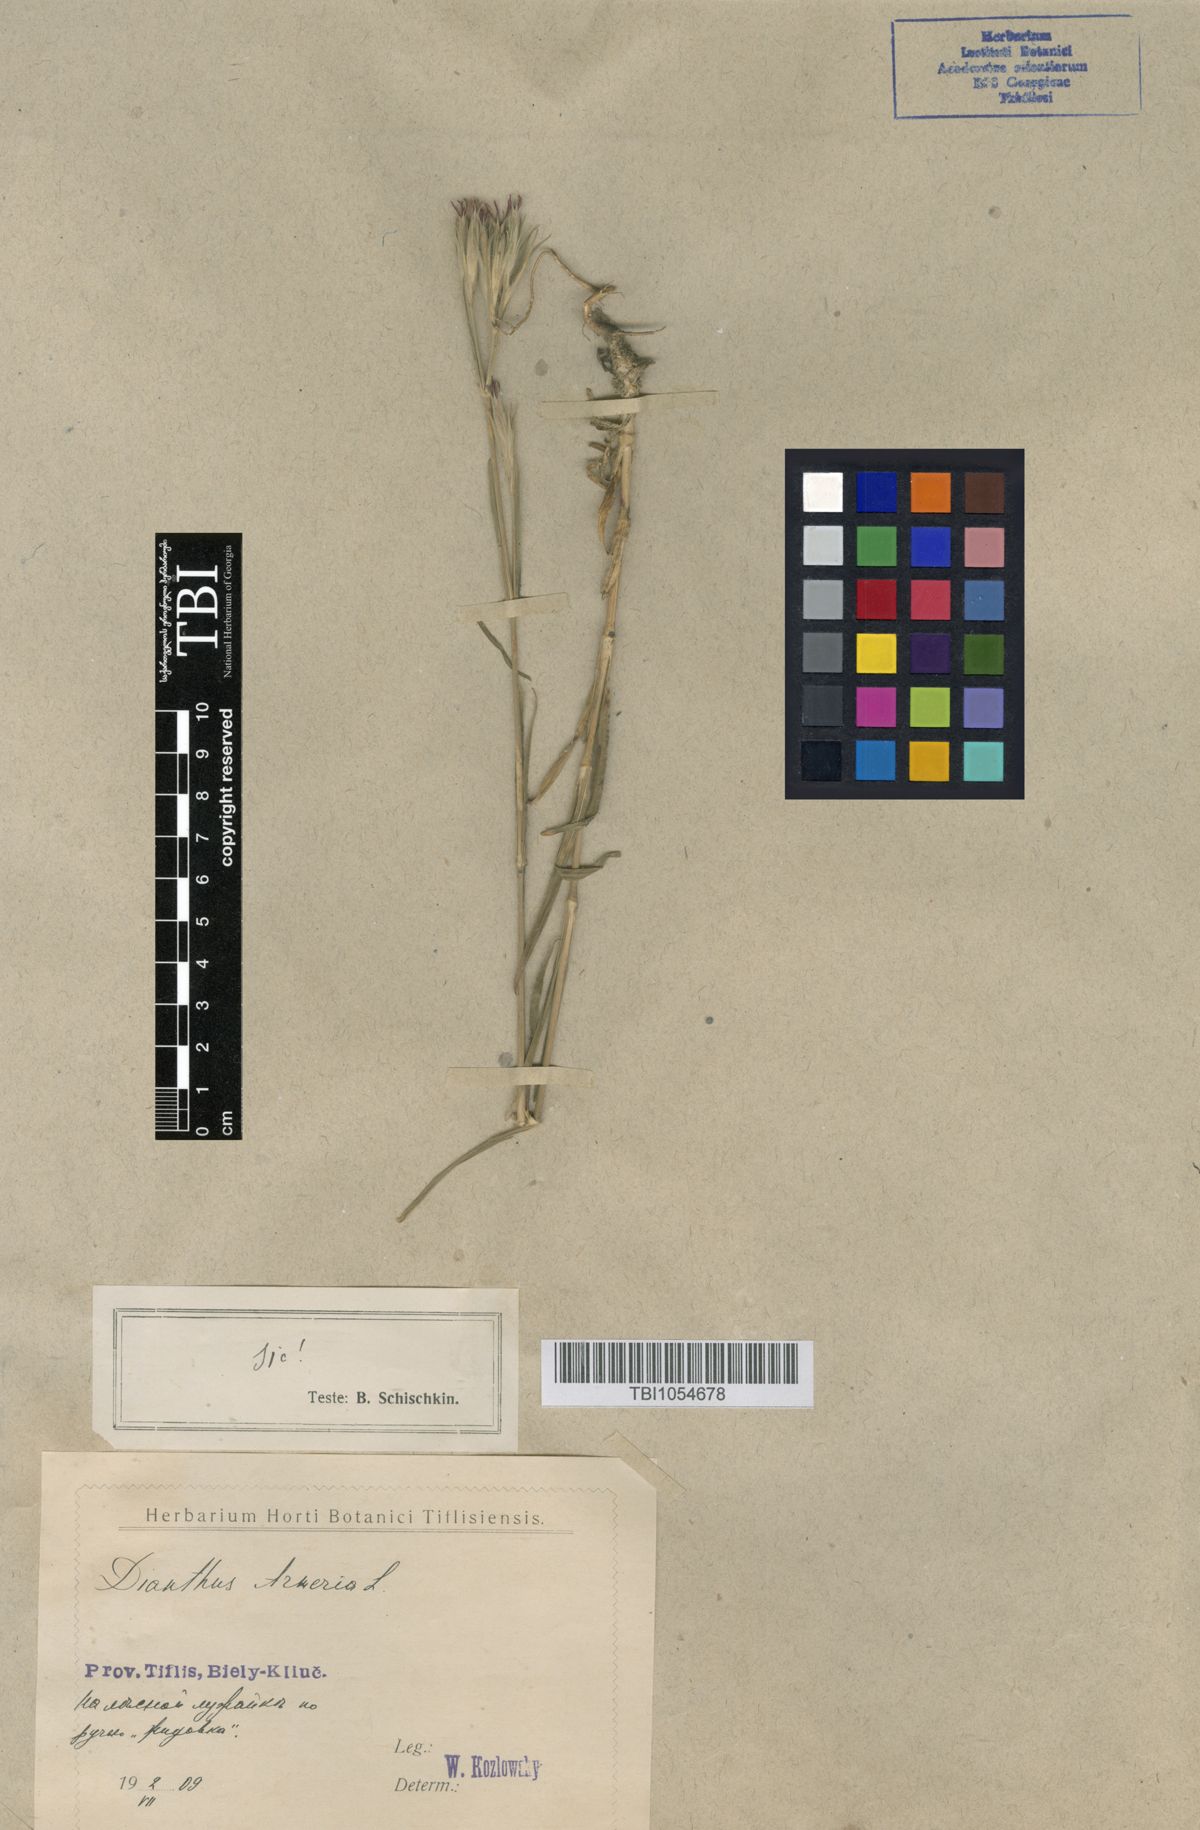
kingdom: Plantae
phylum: Tracheophyta
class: Magnoliopsida
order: Caryophyllales
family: Caryophyllaceae
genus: Dianthus
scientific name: Dianthus armeria
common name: Deptford pink
